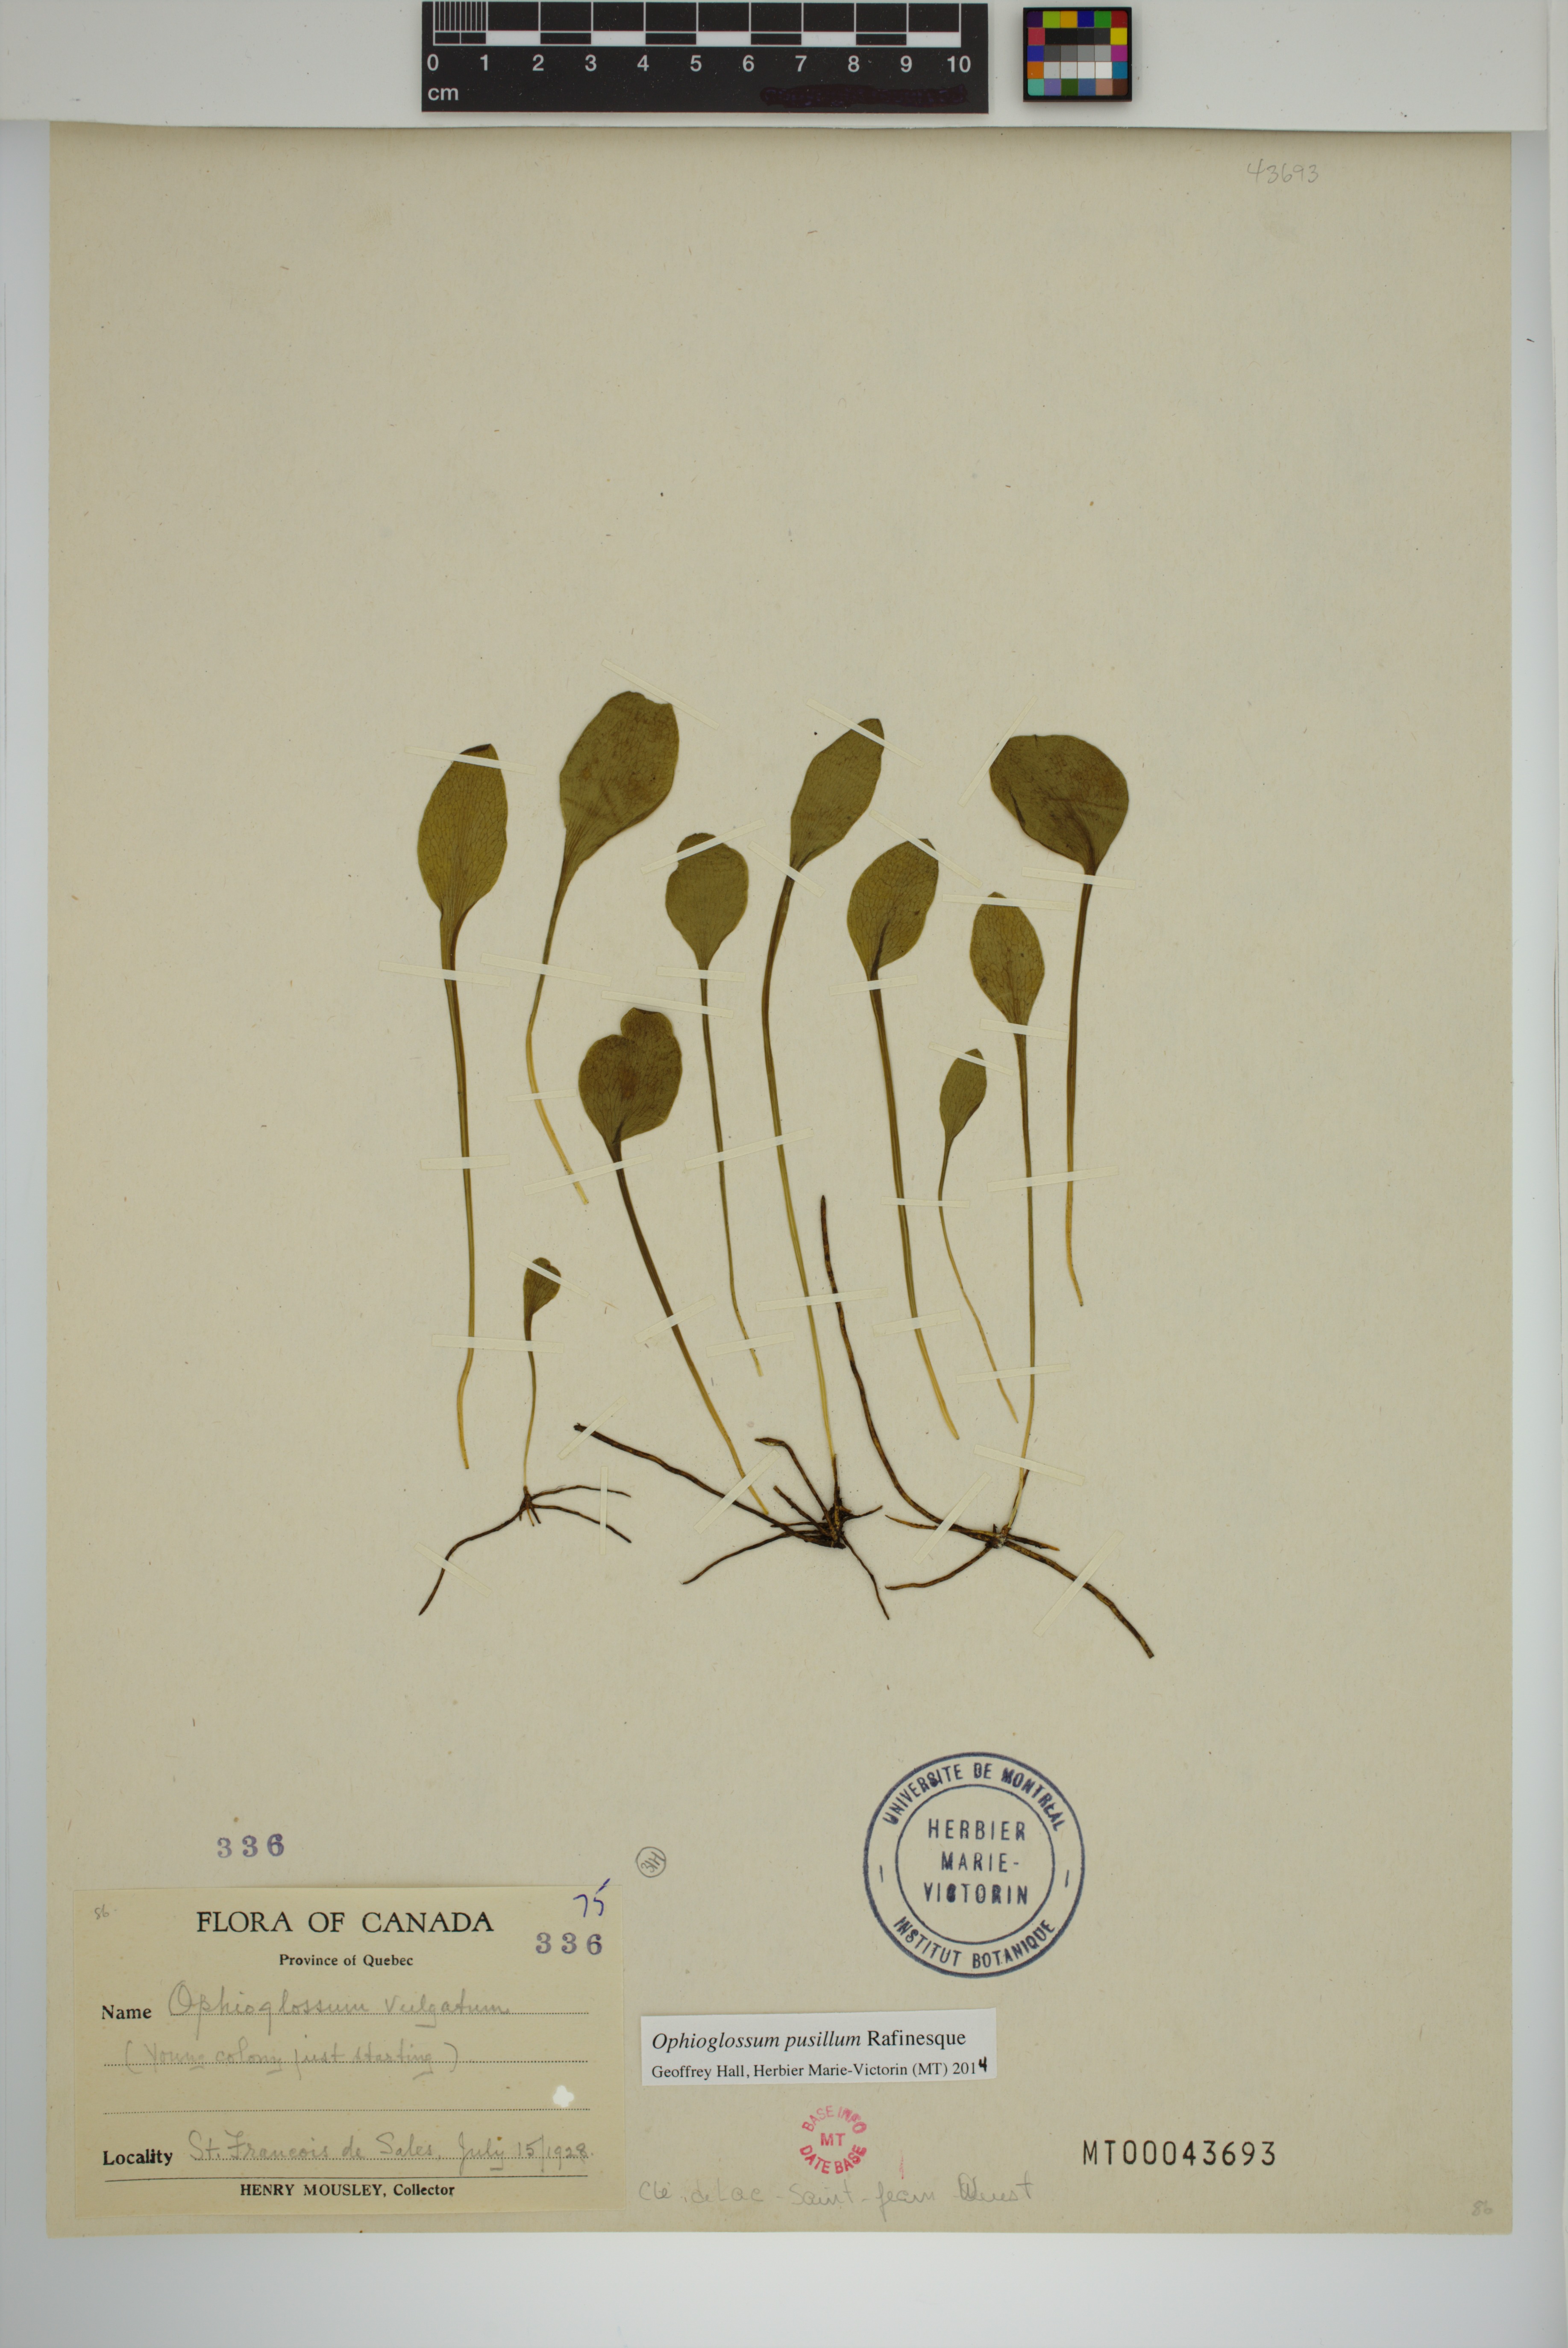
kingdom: Plantae
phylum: Tracheophyta
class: Polypodiopsida
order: Ophioglossales
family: Ophioglossaceae
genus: Ophioglossum
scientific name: Ophioglossum pusillum
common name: Northern adder's-tongue
